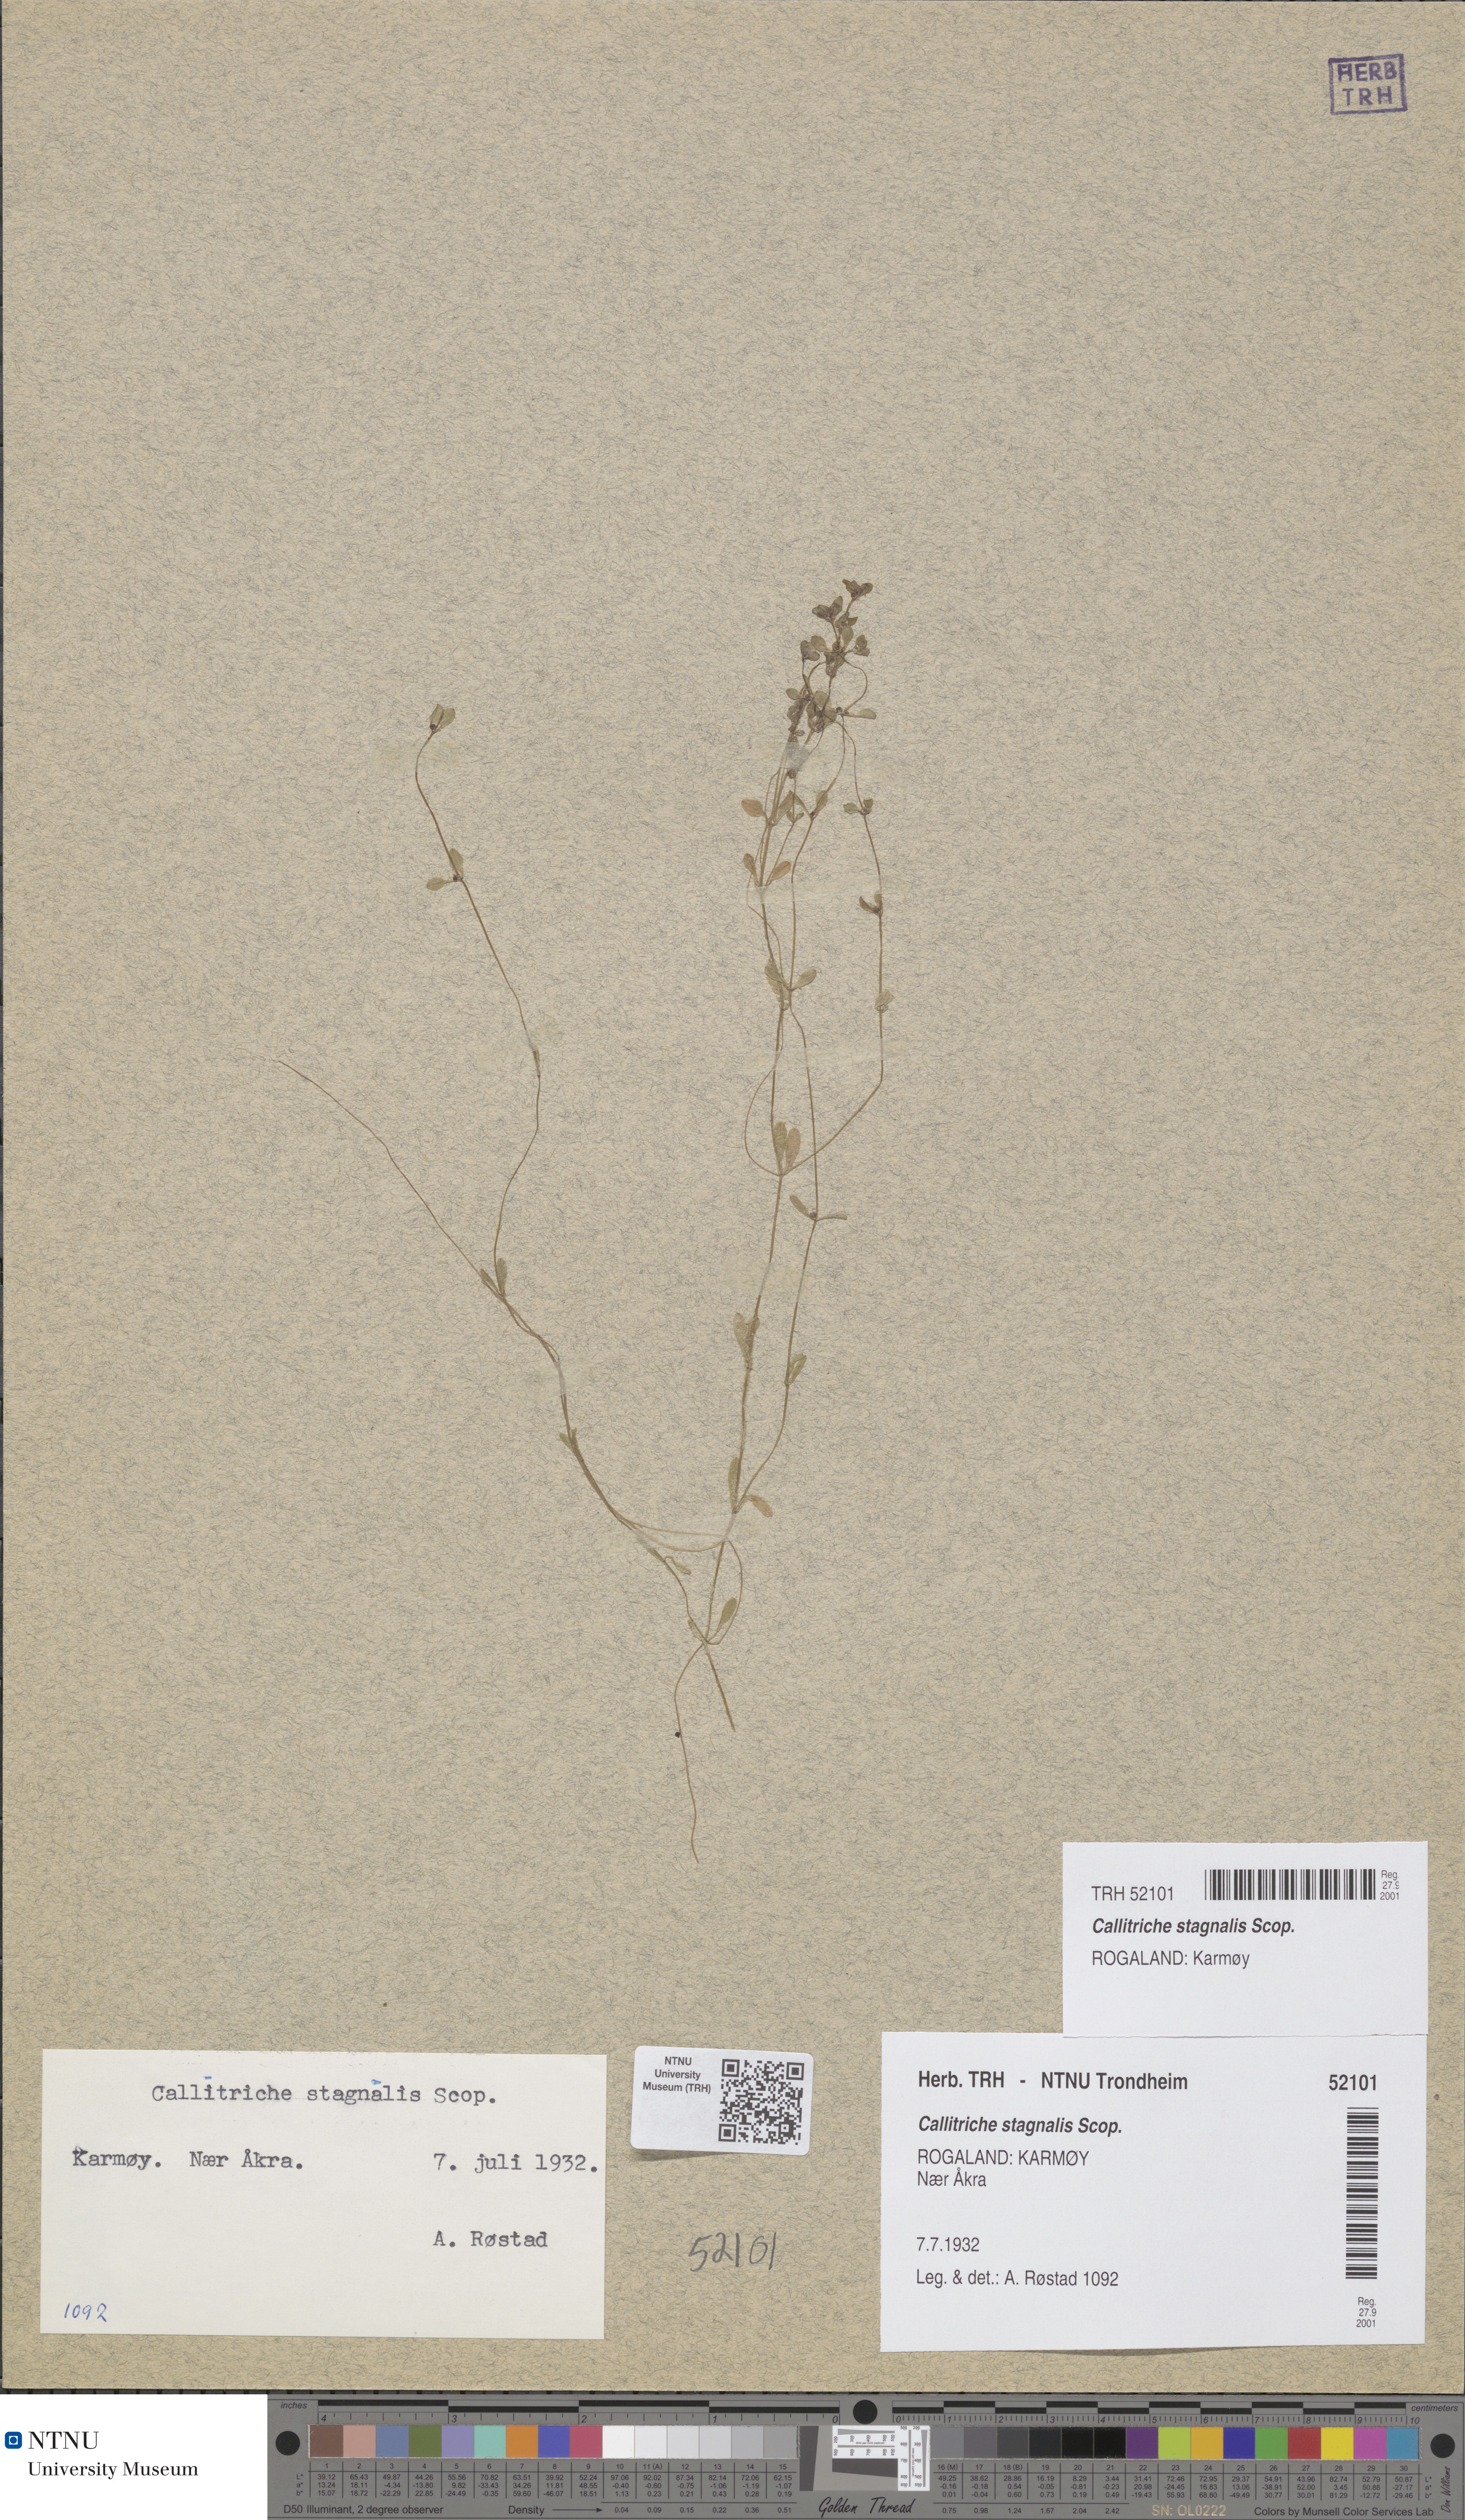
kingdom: Plantae
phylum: Tracheophyta
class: Magnoliopsida
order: Lamiales
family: Plantaginaceae
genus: Callitriche
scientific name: Callitriche stagnalis
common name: Common water-starwort
